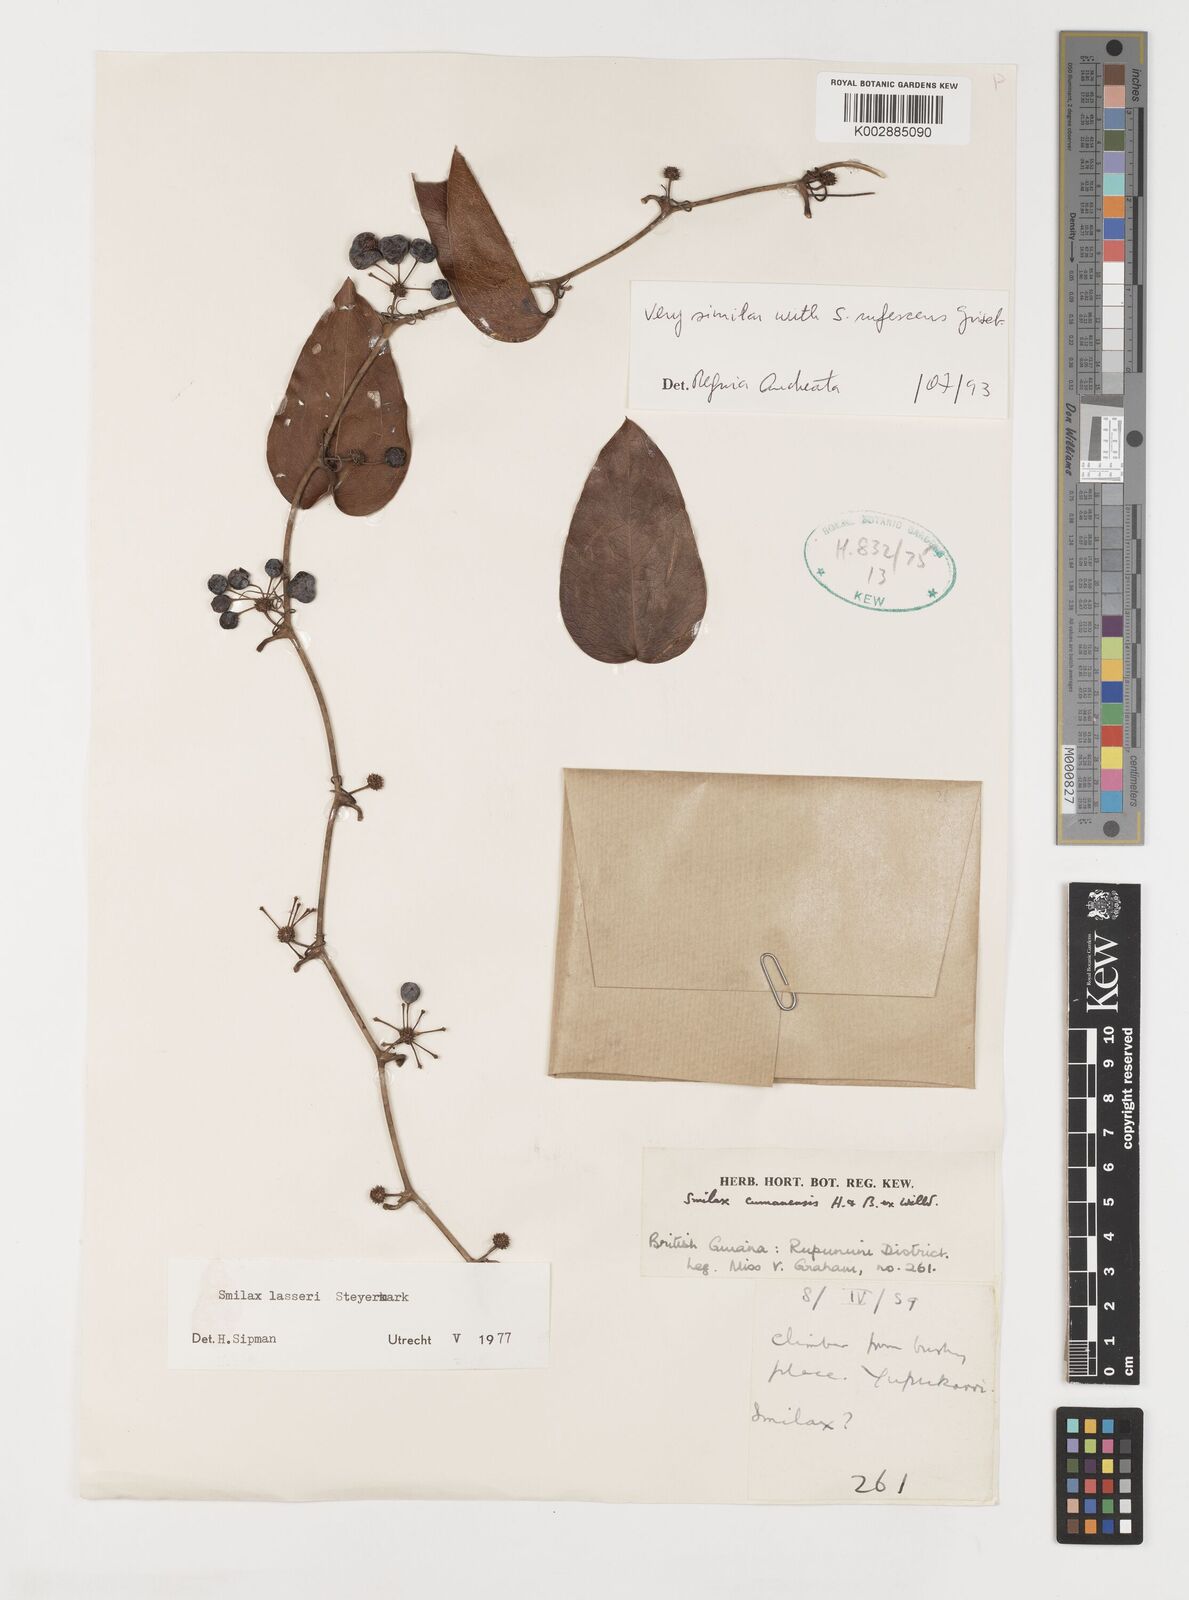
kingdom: Plantae
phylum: Tracheophyta
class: Liliopsida
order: Liliales
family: Smilacaceae
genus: Smilax
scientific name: Smilax domingensis
